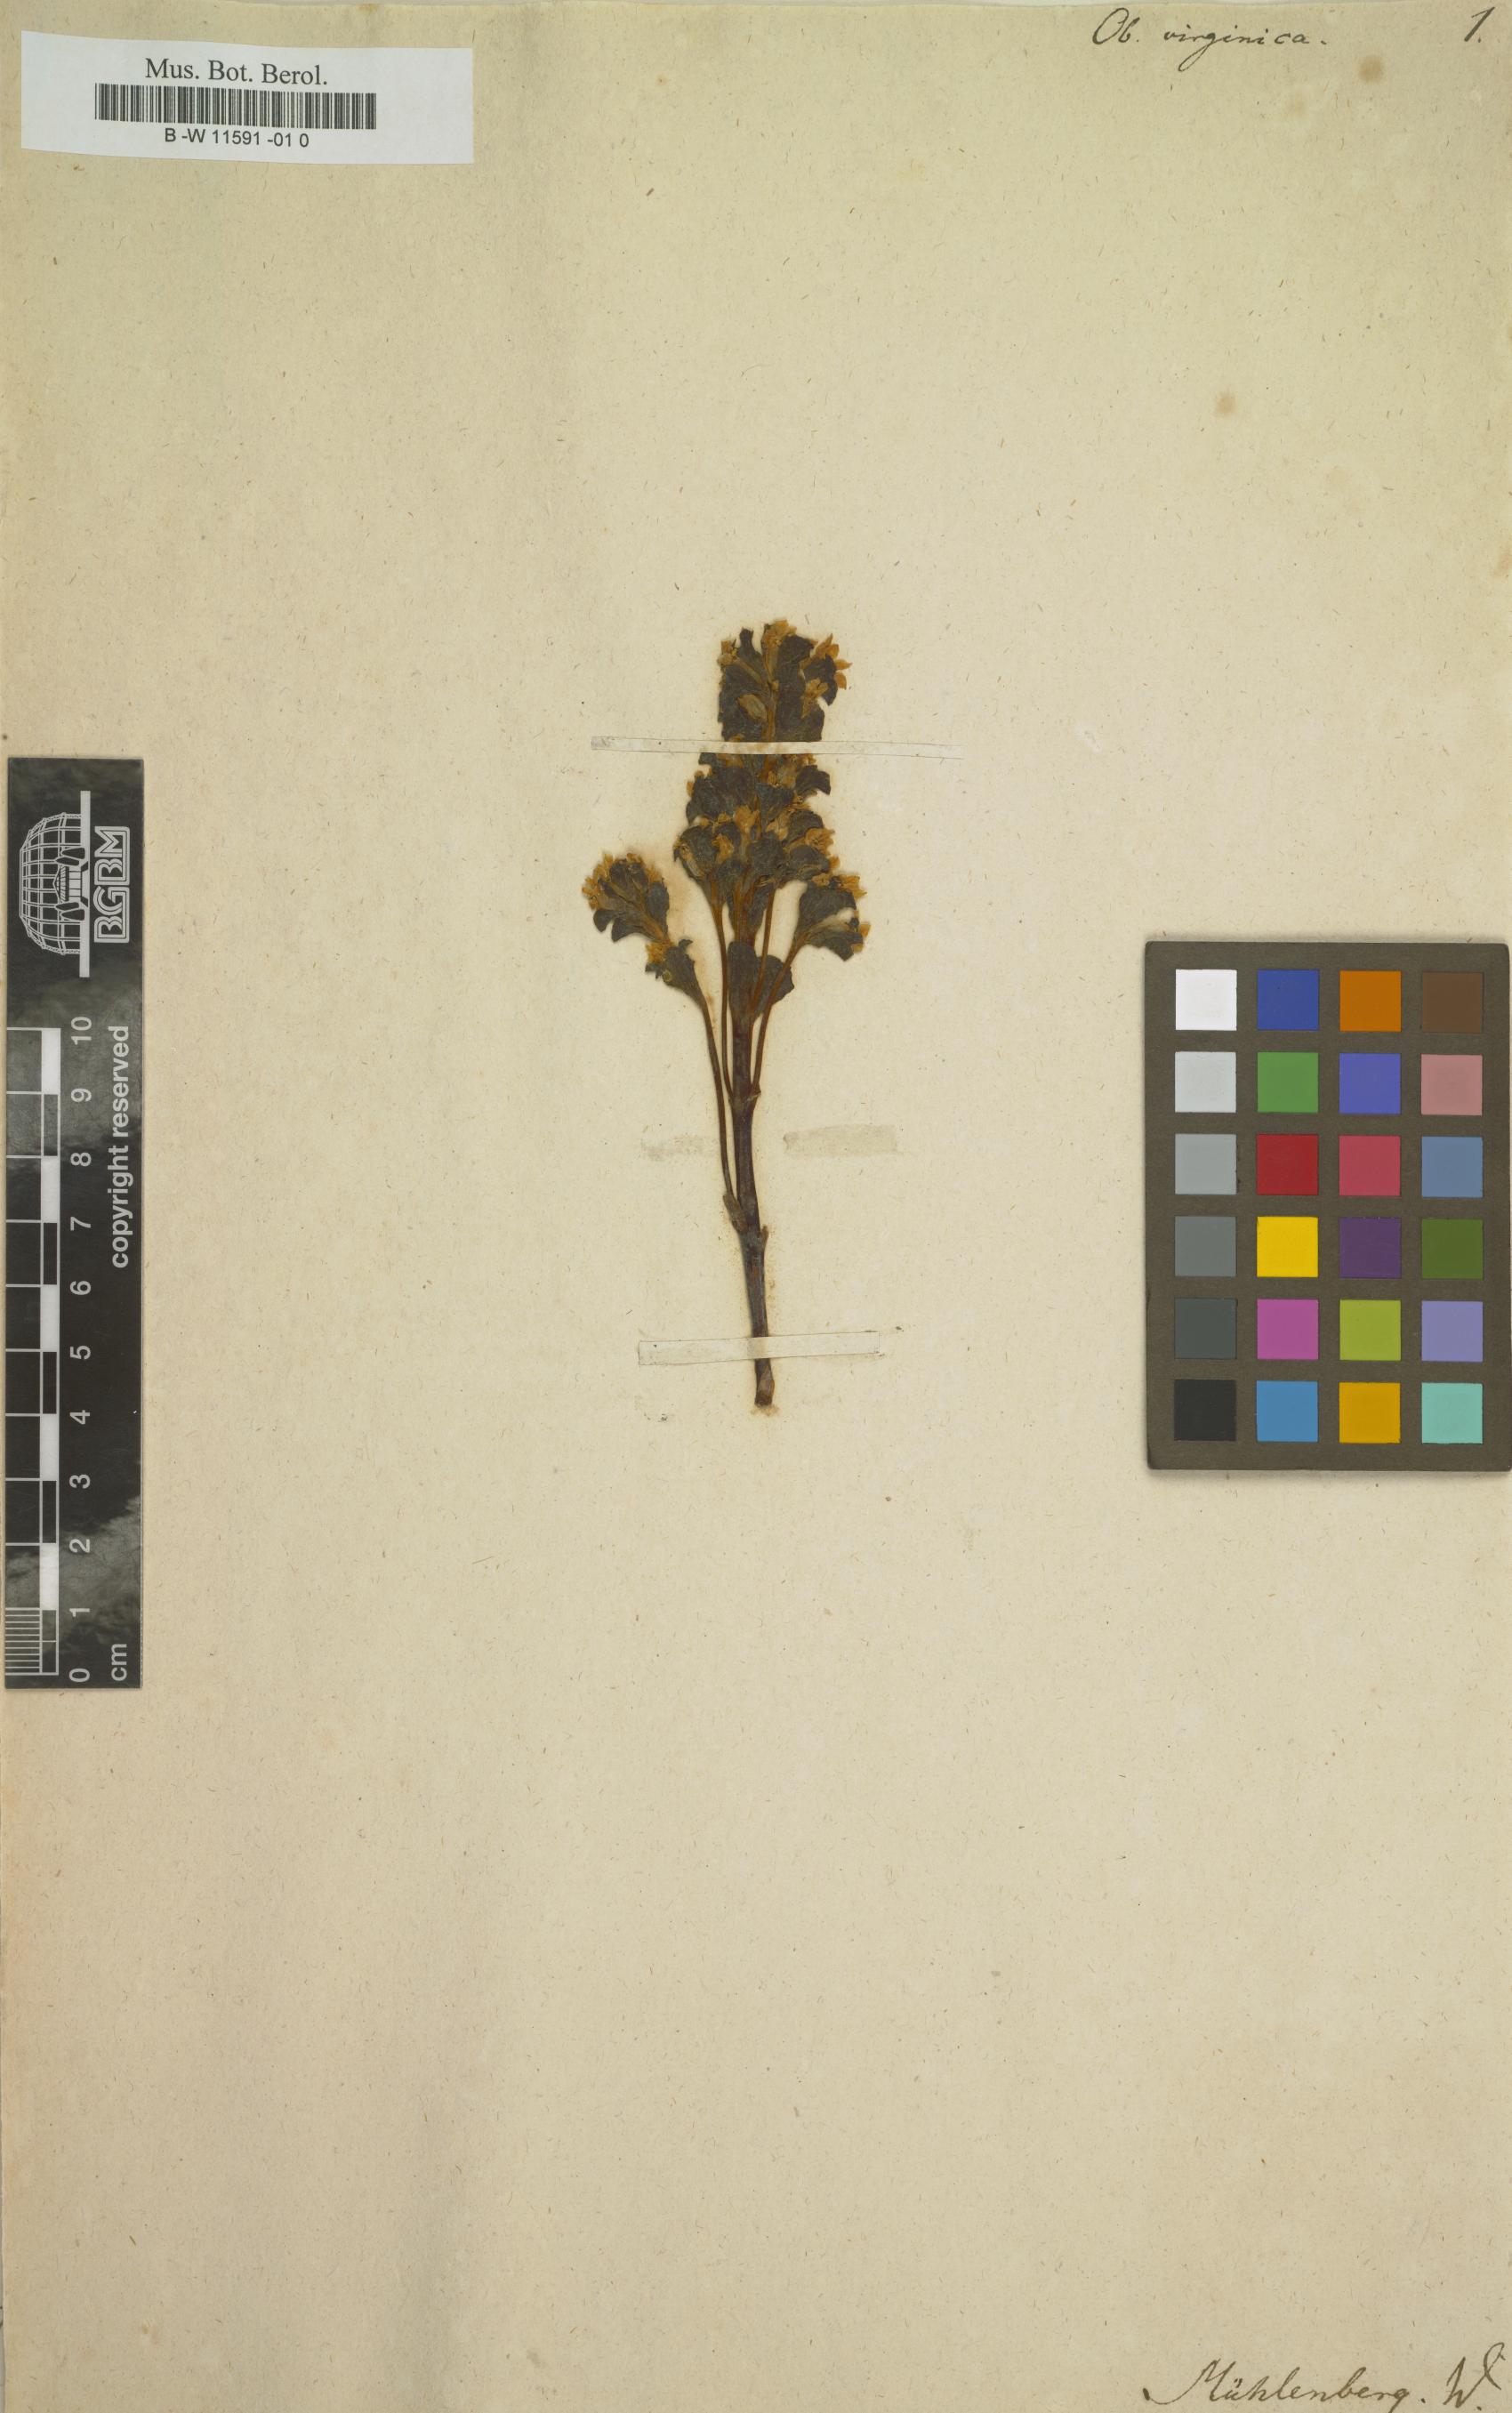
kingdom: Plantae
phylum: Tracheophyta
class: Magnoliopsida
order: Gentianales
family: Gentianaceae
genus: Obolaria
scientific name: Obolaria virginica
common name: Pennywort
